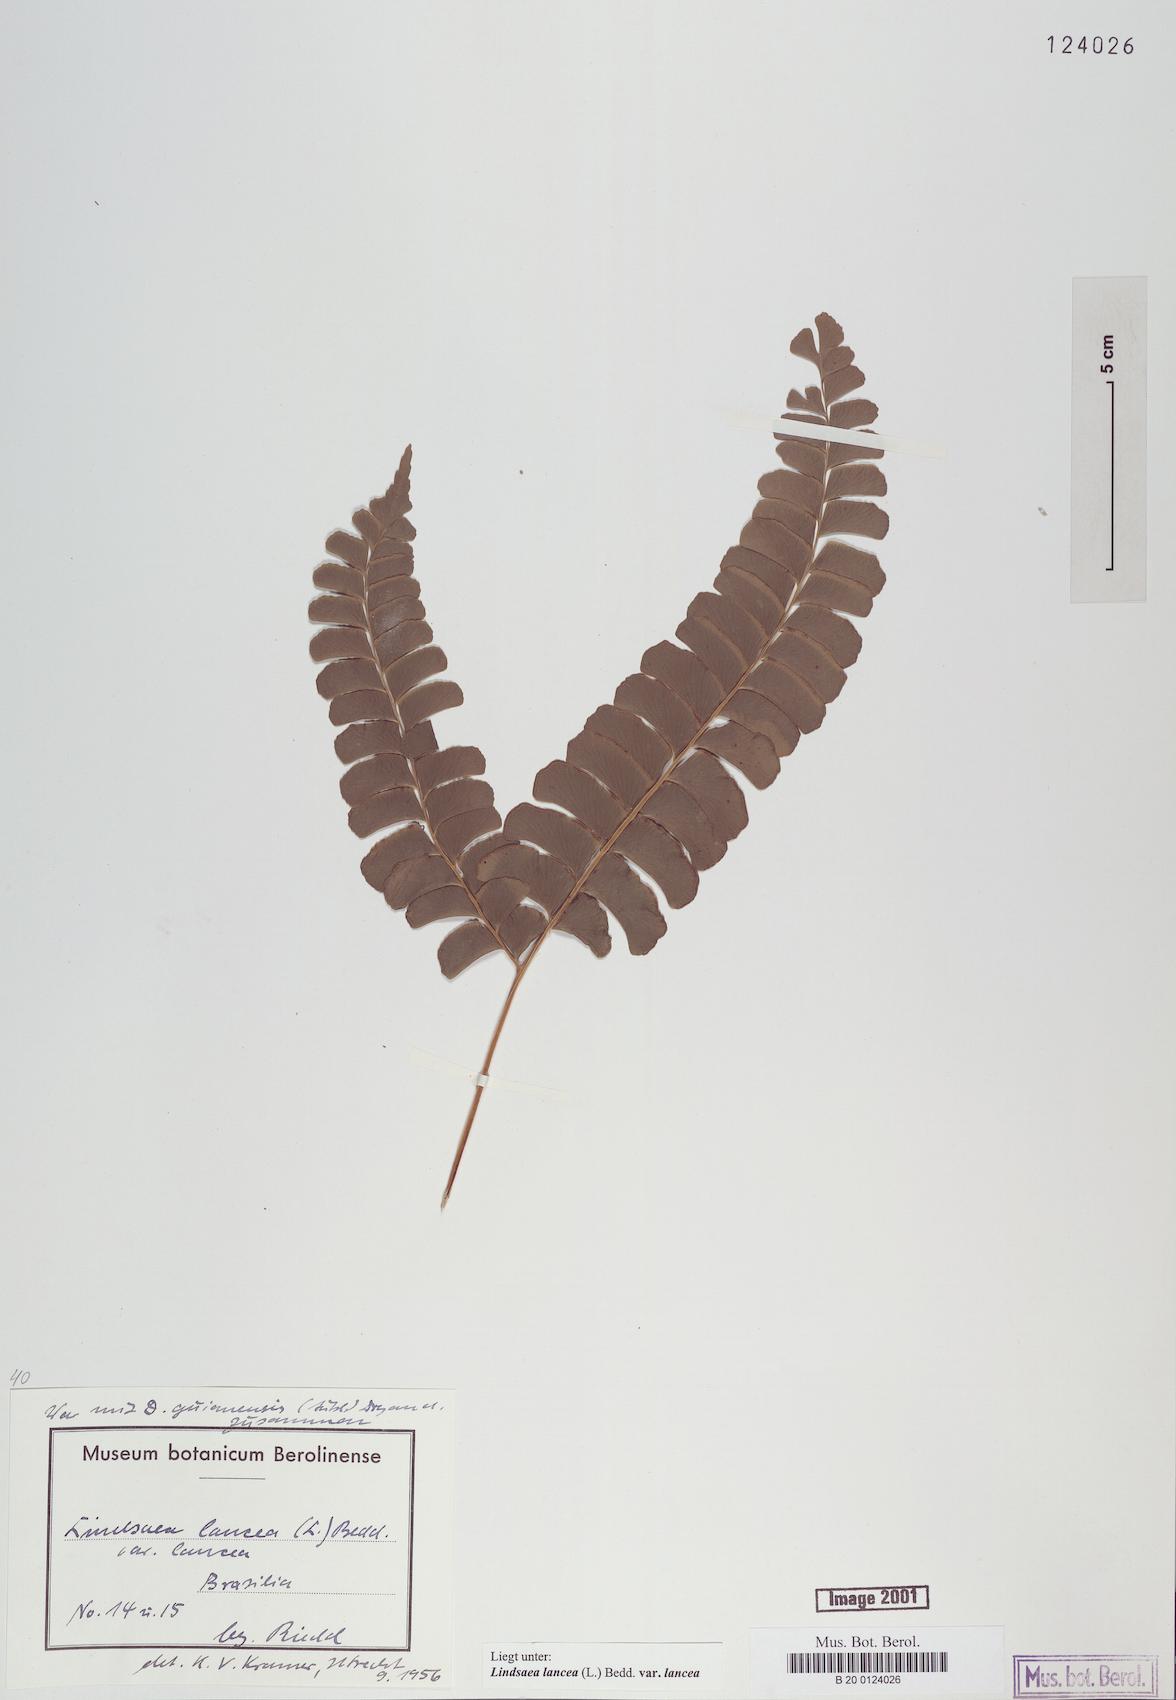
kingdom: Plantae
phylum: Tracheophyta
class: Polypodiopsida
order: Polypodiales
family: Lindsaeaceae
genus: Lindsaea
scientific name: Lindsaea lancea
